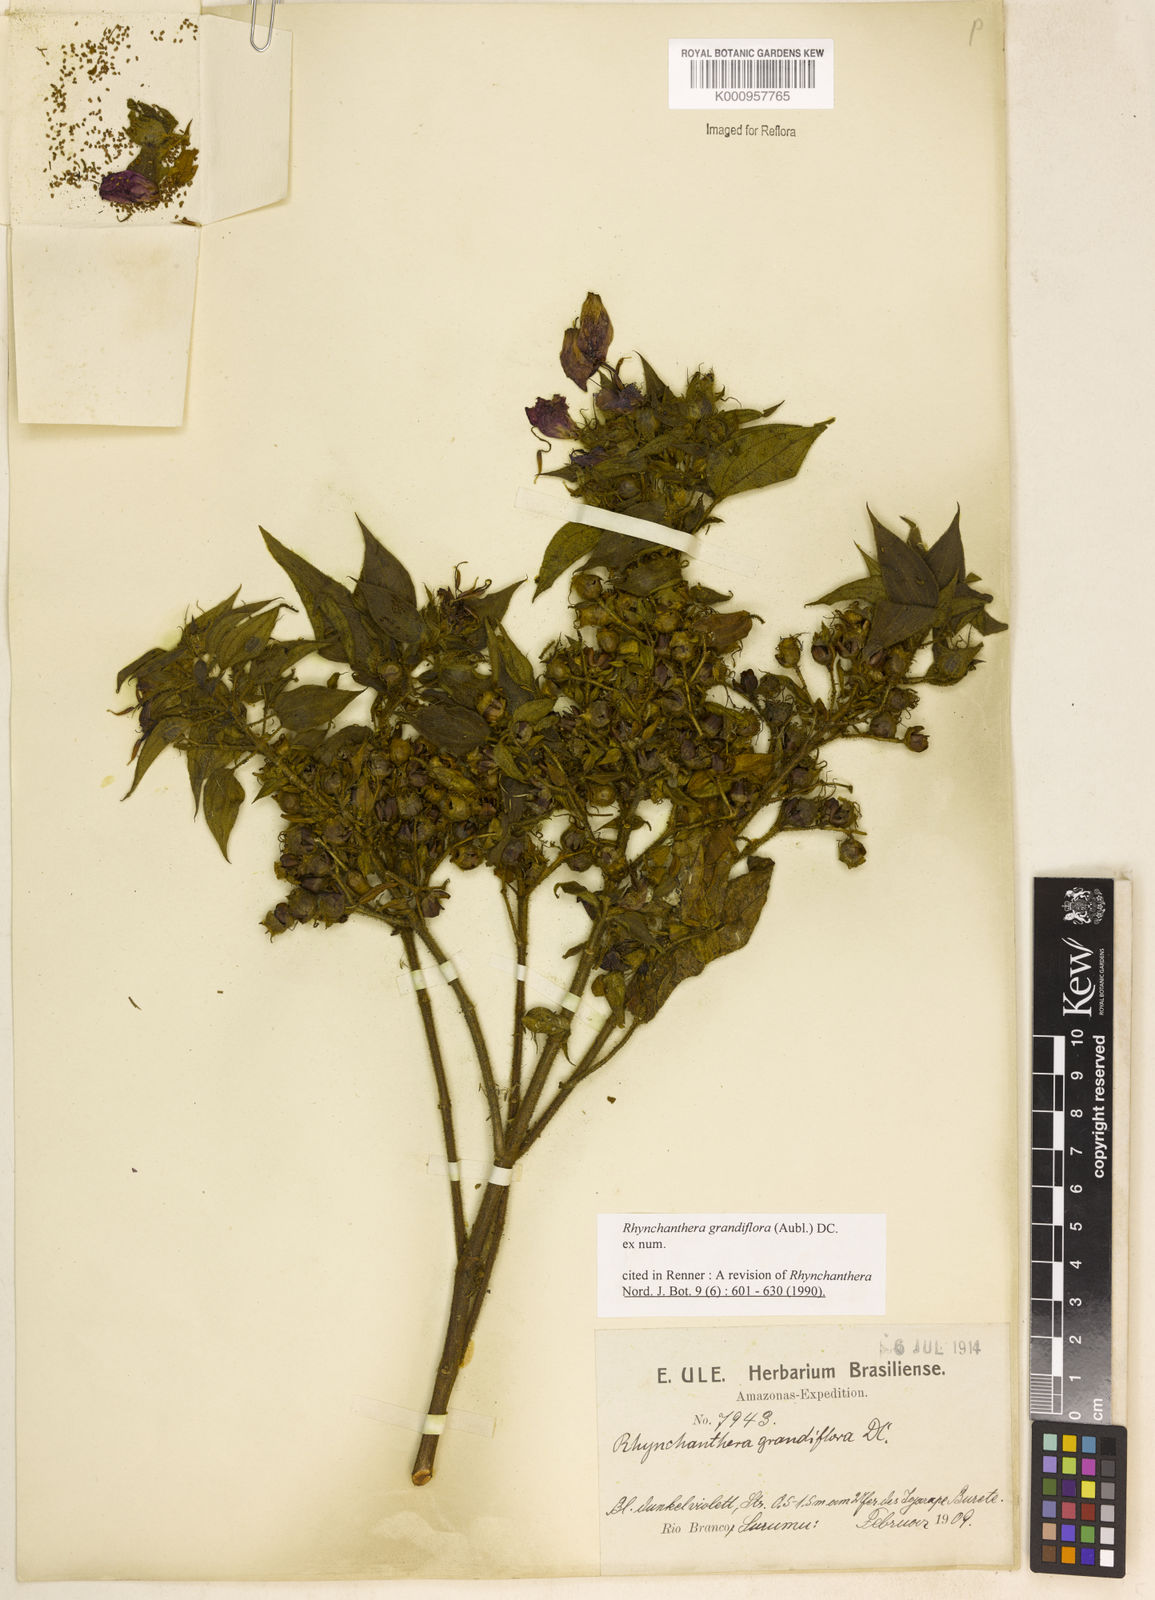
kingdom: Plantae
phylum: Tracheophyta
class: Magnoliopsida
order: Myrtales
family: Melastomataceae
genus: Rhynchanthera
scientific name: Rhynchanthera grandiflora
